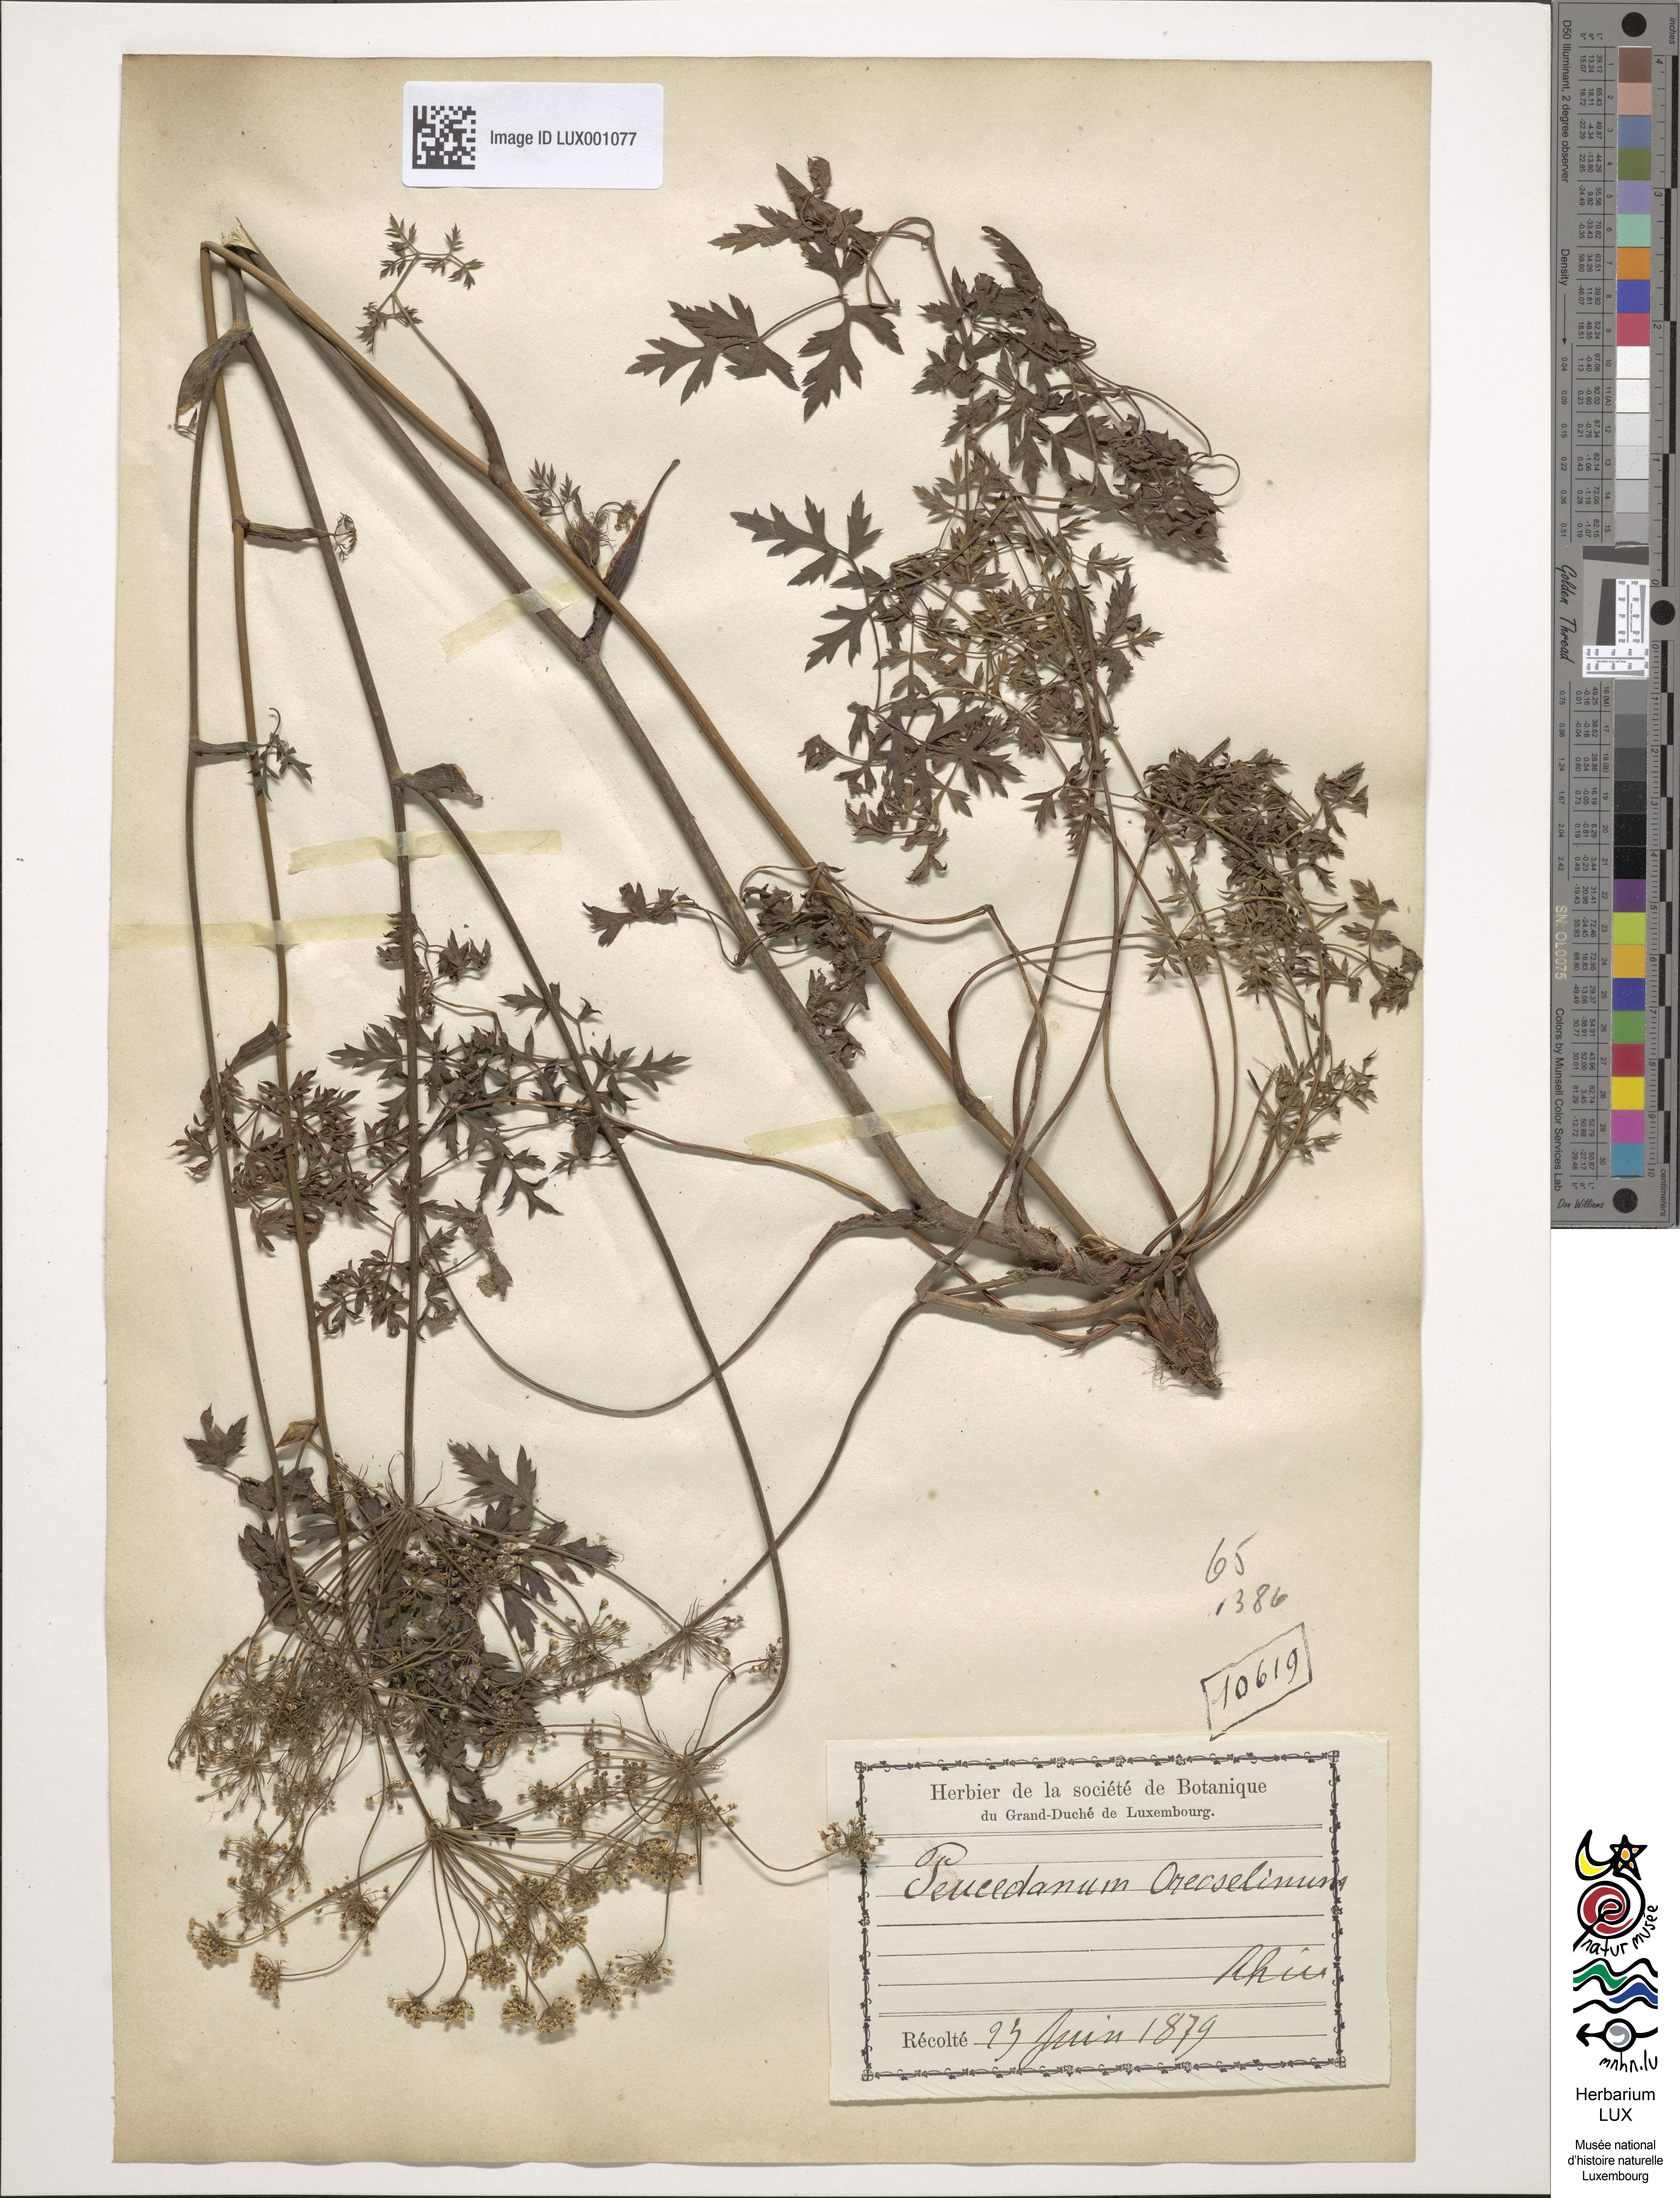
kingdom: Plantae
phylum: Tracheophyta
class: Magnoliopsida
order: Apiales
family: Apiaceae
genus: Oreoselinum
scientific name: Oreoselinum nigrum
